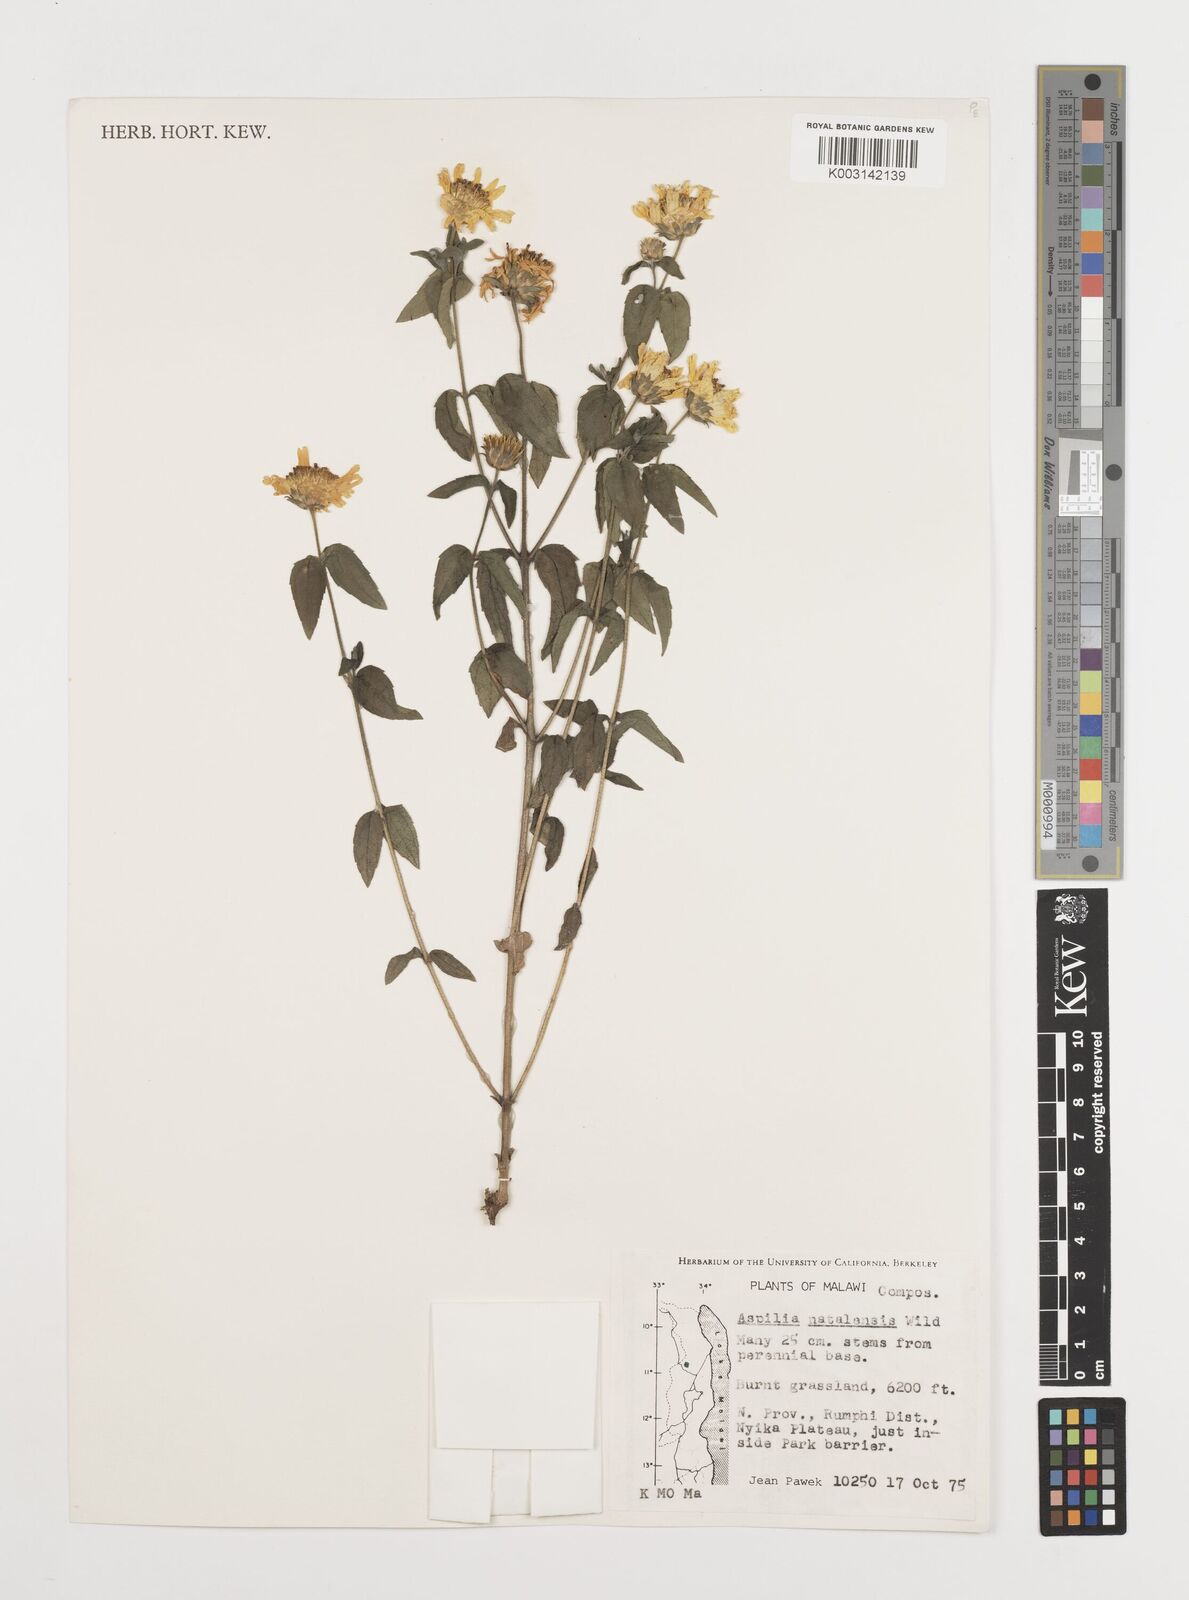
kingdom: Plantae
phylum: Tracheophyta
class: Magnoliopsida
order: Asterales
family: Asteraceae
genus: Aspilia
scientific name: Aspilia natalensis
